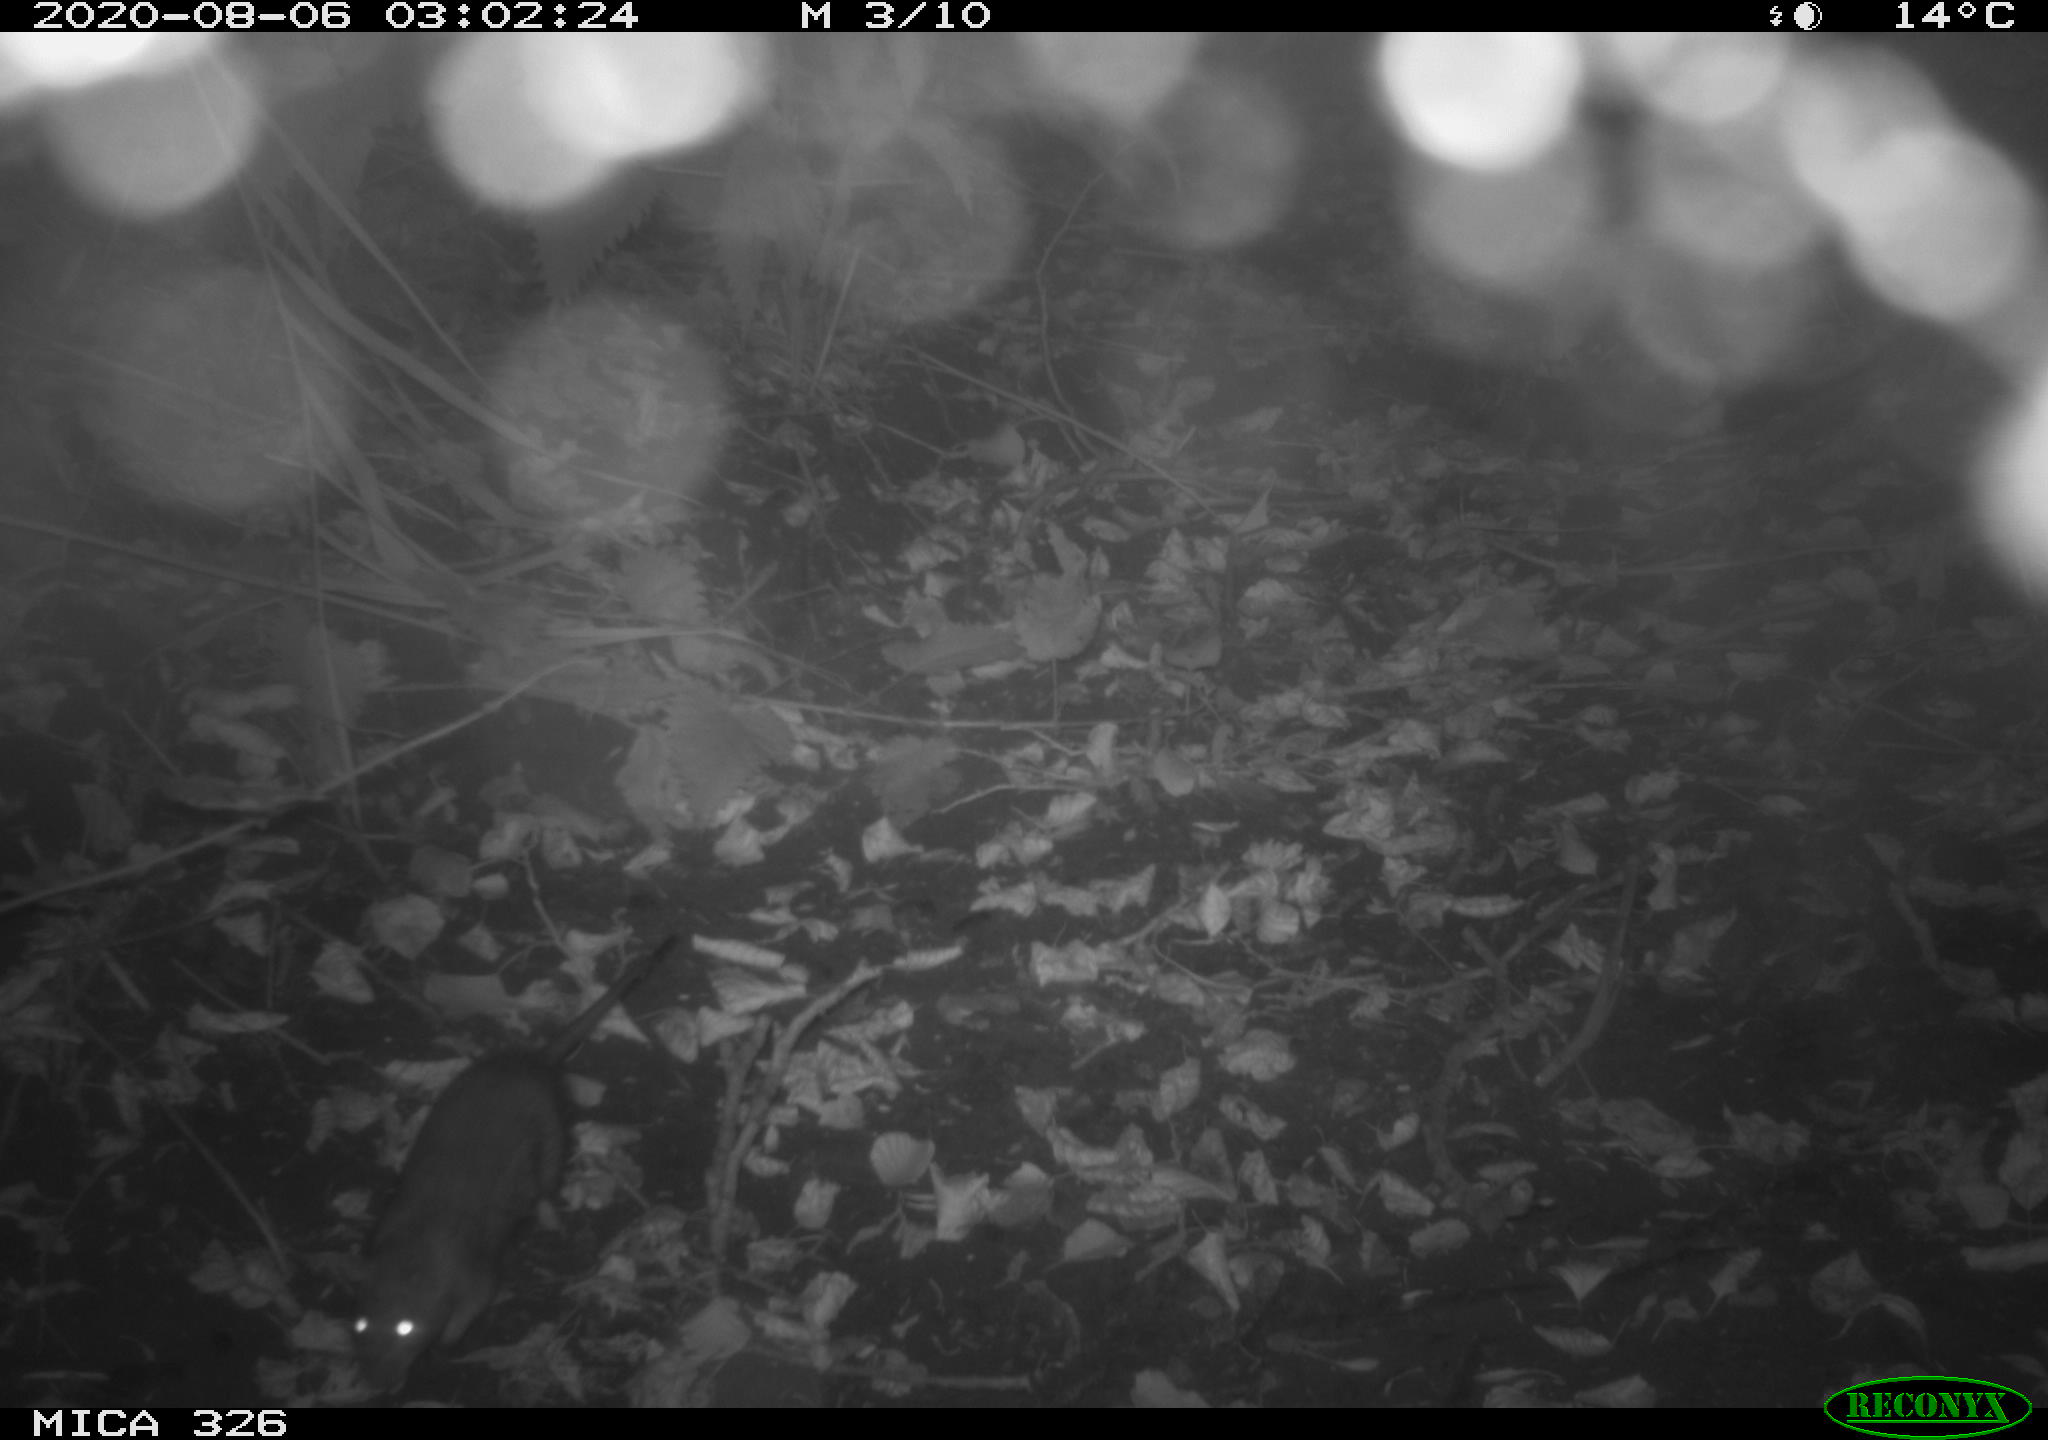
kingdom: Animalia
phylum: Chordata
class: Mammalia
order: Rodentia
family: Muridae
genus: Rattus
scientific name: Rattus norvegicus
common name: Brown rat
